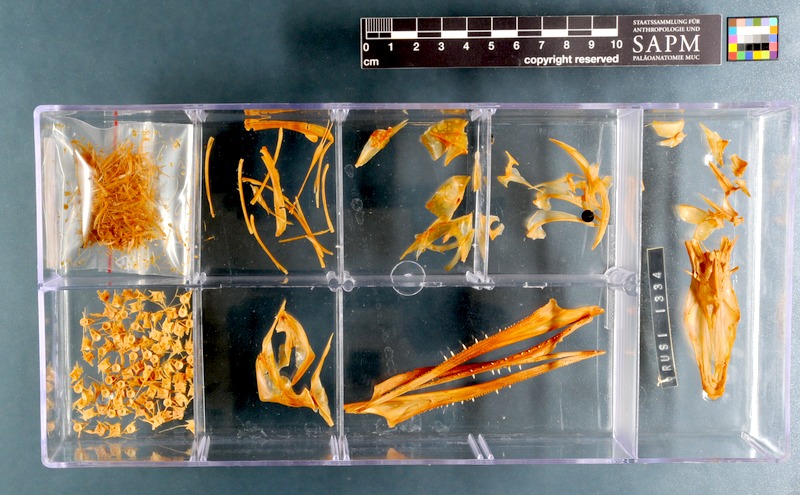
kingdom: Animalia
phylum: Chordata
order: Beloniformes
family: Belonidae
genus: Tylosurus
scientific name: Tylosurus crocodilus
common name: Houndfish
